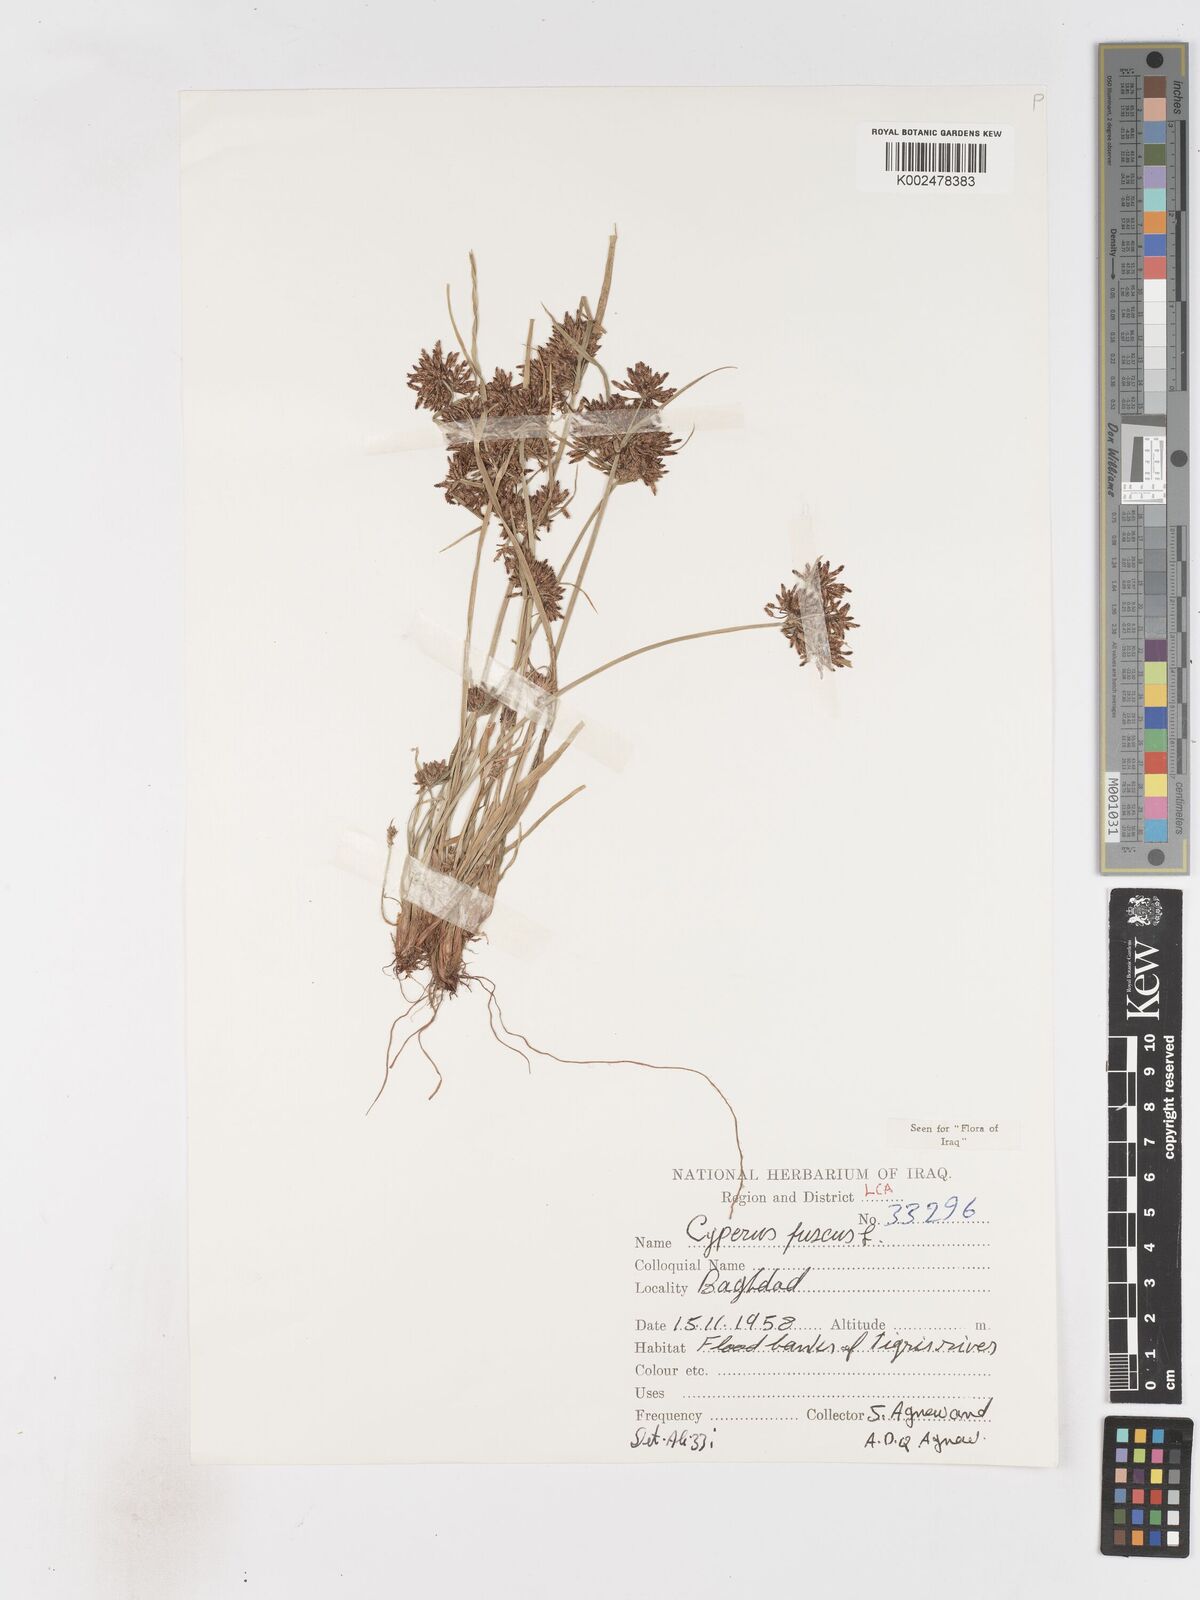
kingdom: Plantae
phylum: Tracheophyta
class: Liliopsida
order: Poales
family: Cyperaceae
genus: Cyperus
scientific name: Cyperus fuscus
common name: Brown galingale
